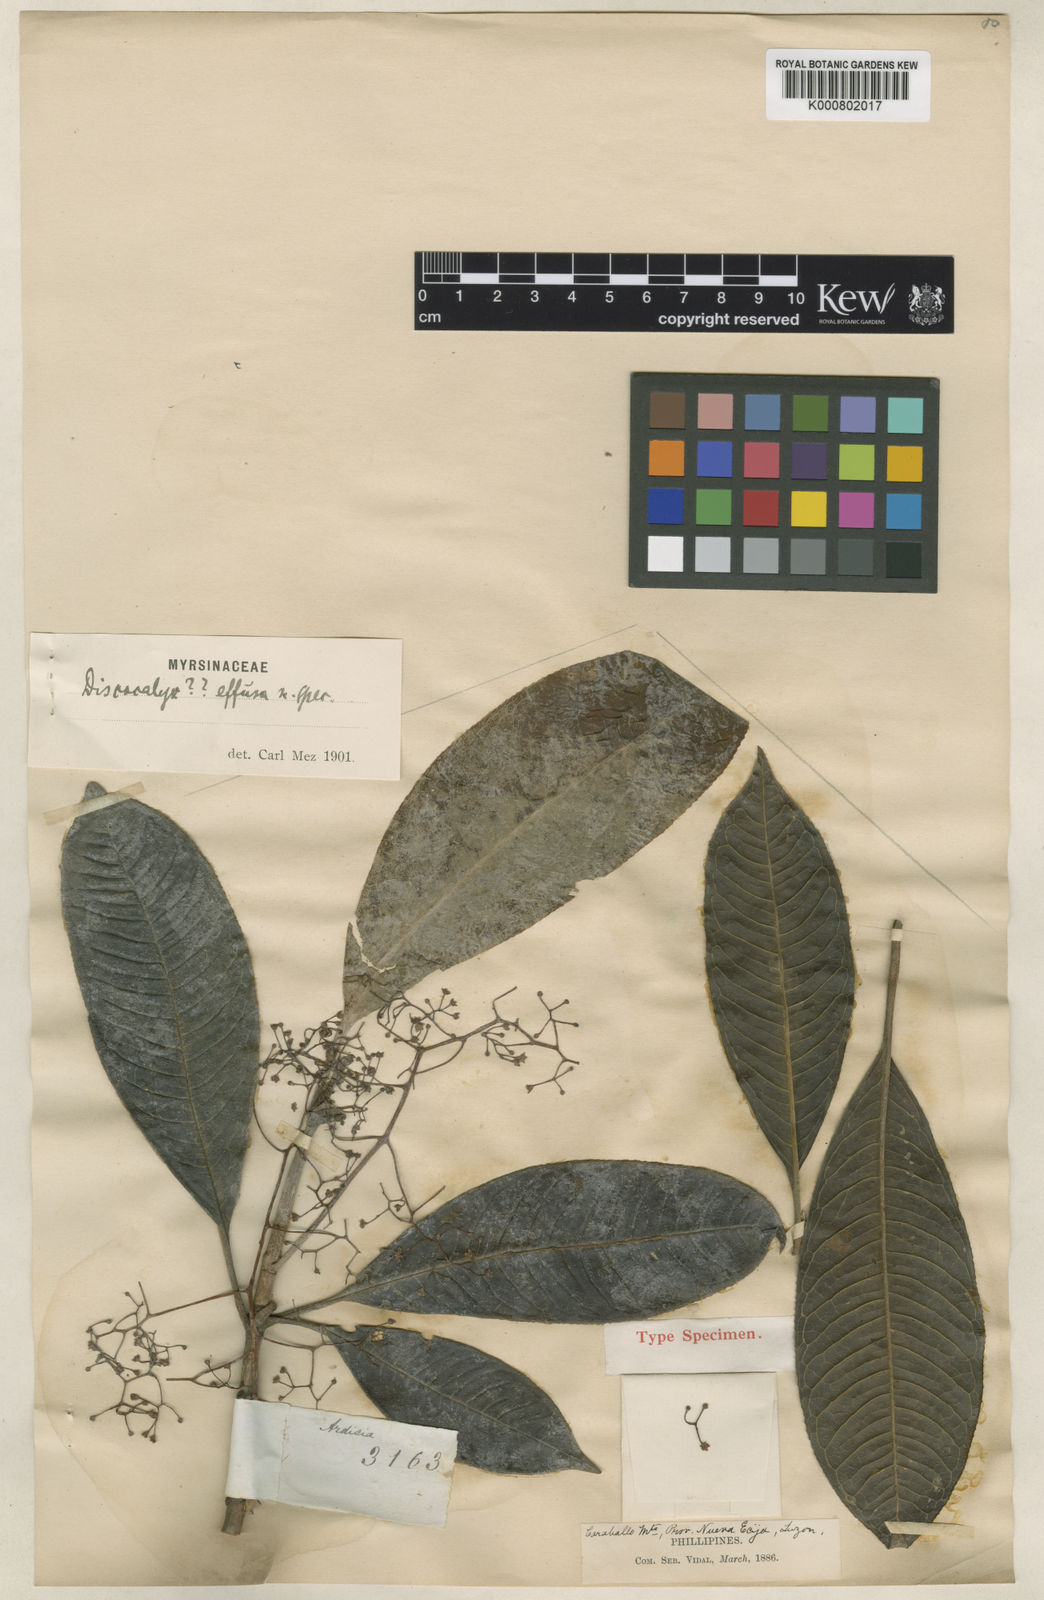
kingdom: Plantae
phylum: Tracheophyta
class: Magnoliopsida
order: Ericales
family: Primulaceae
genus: Discocalyx
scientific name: Discocalyx effusa
